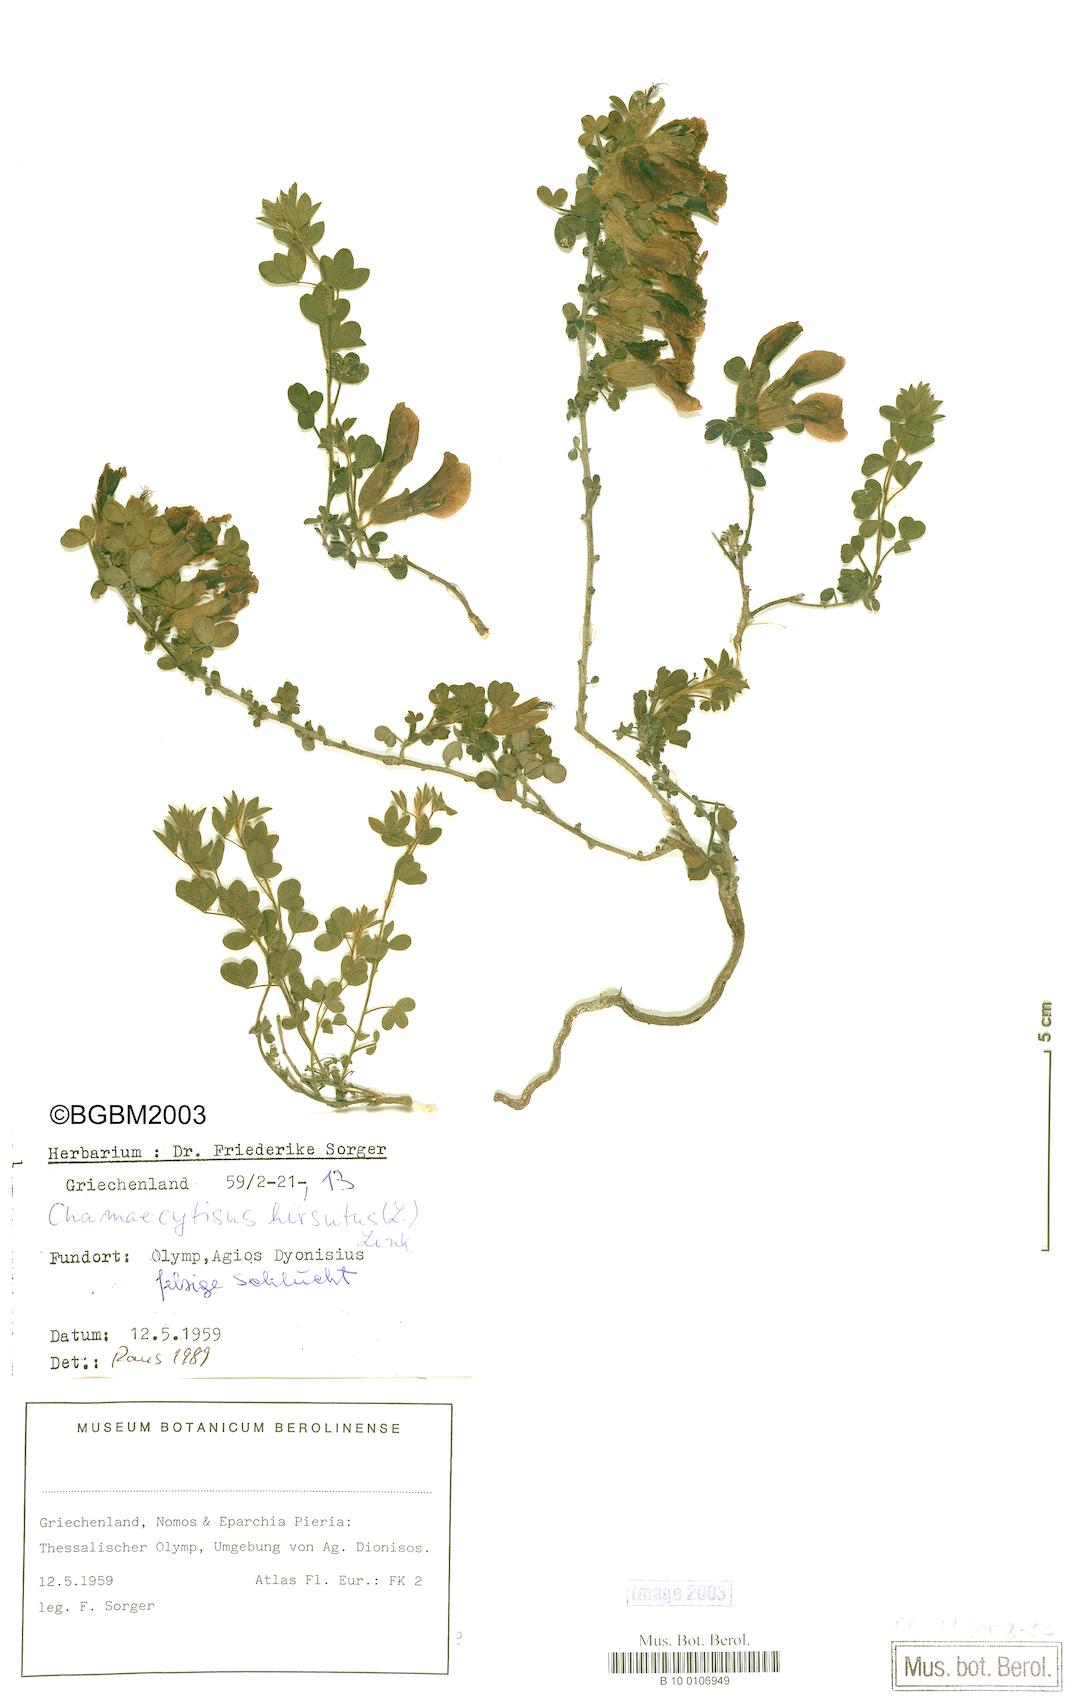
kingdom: Plantae
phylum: Tracheophyta
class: Magnoliopsida
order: Fabales
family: Fabaceae
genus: Chamaecytisus
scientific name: Chamaecytisus hirsutus
